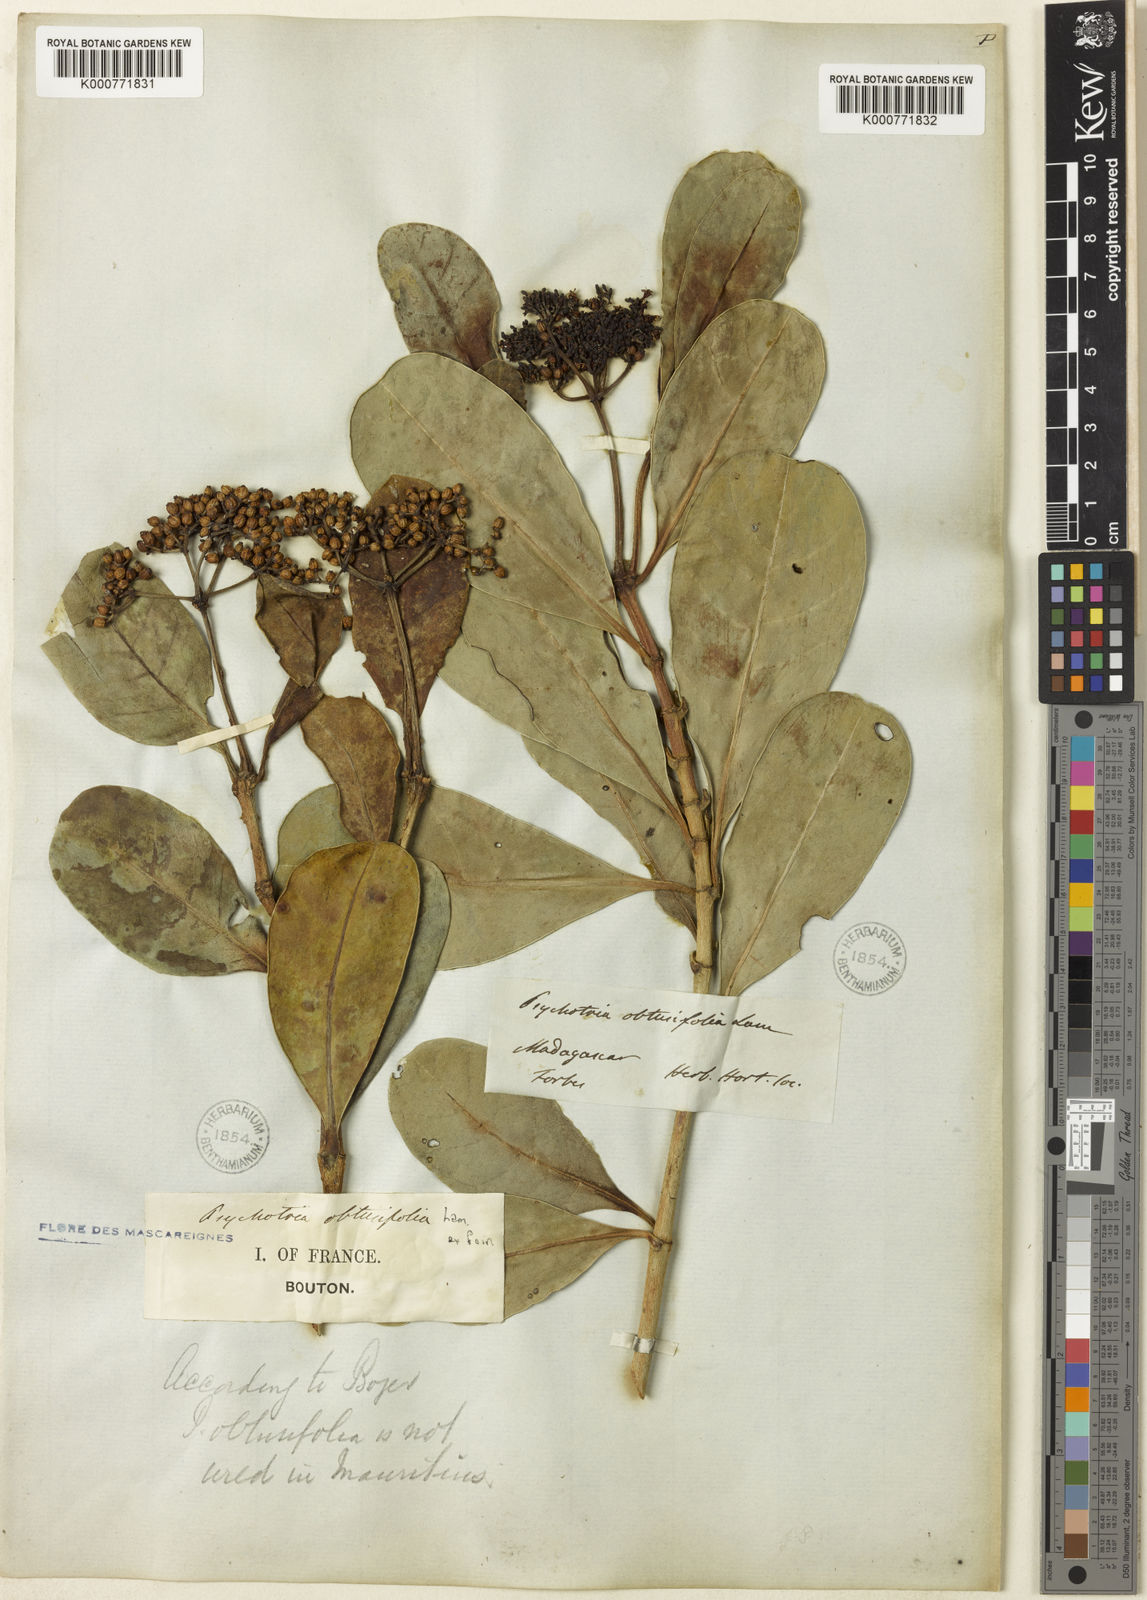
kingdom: Plantae
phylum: Tracheophyta
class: Magnoliopsida
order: Gentianales
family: Rubiaceae
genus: Psychotria
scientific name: Psychotria obtusifolia
